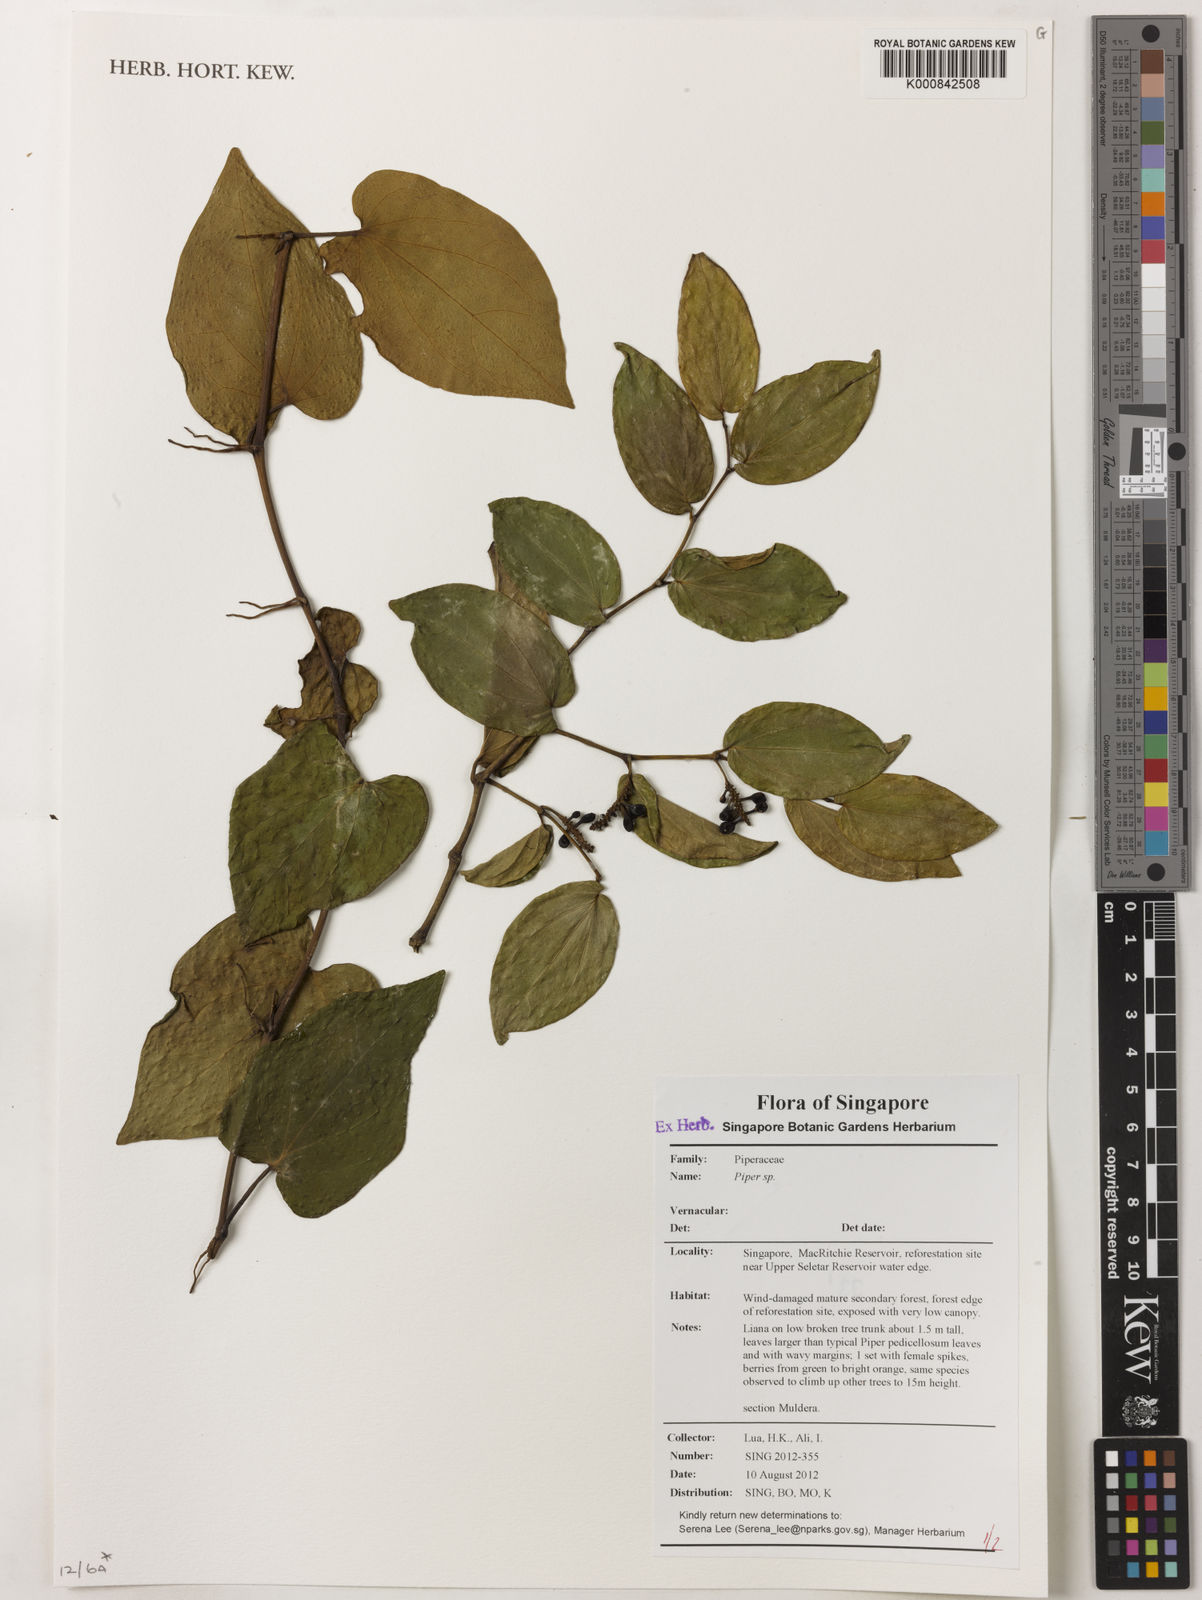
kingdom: Plantae
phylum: Tracheophyta
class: Magnoliopsida
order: Piperales
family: Piperaceae
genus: Piper
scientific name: Piper
